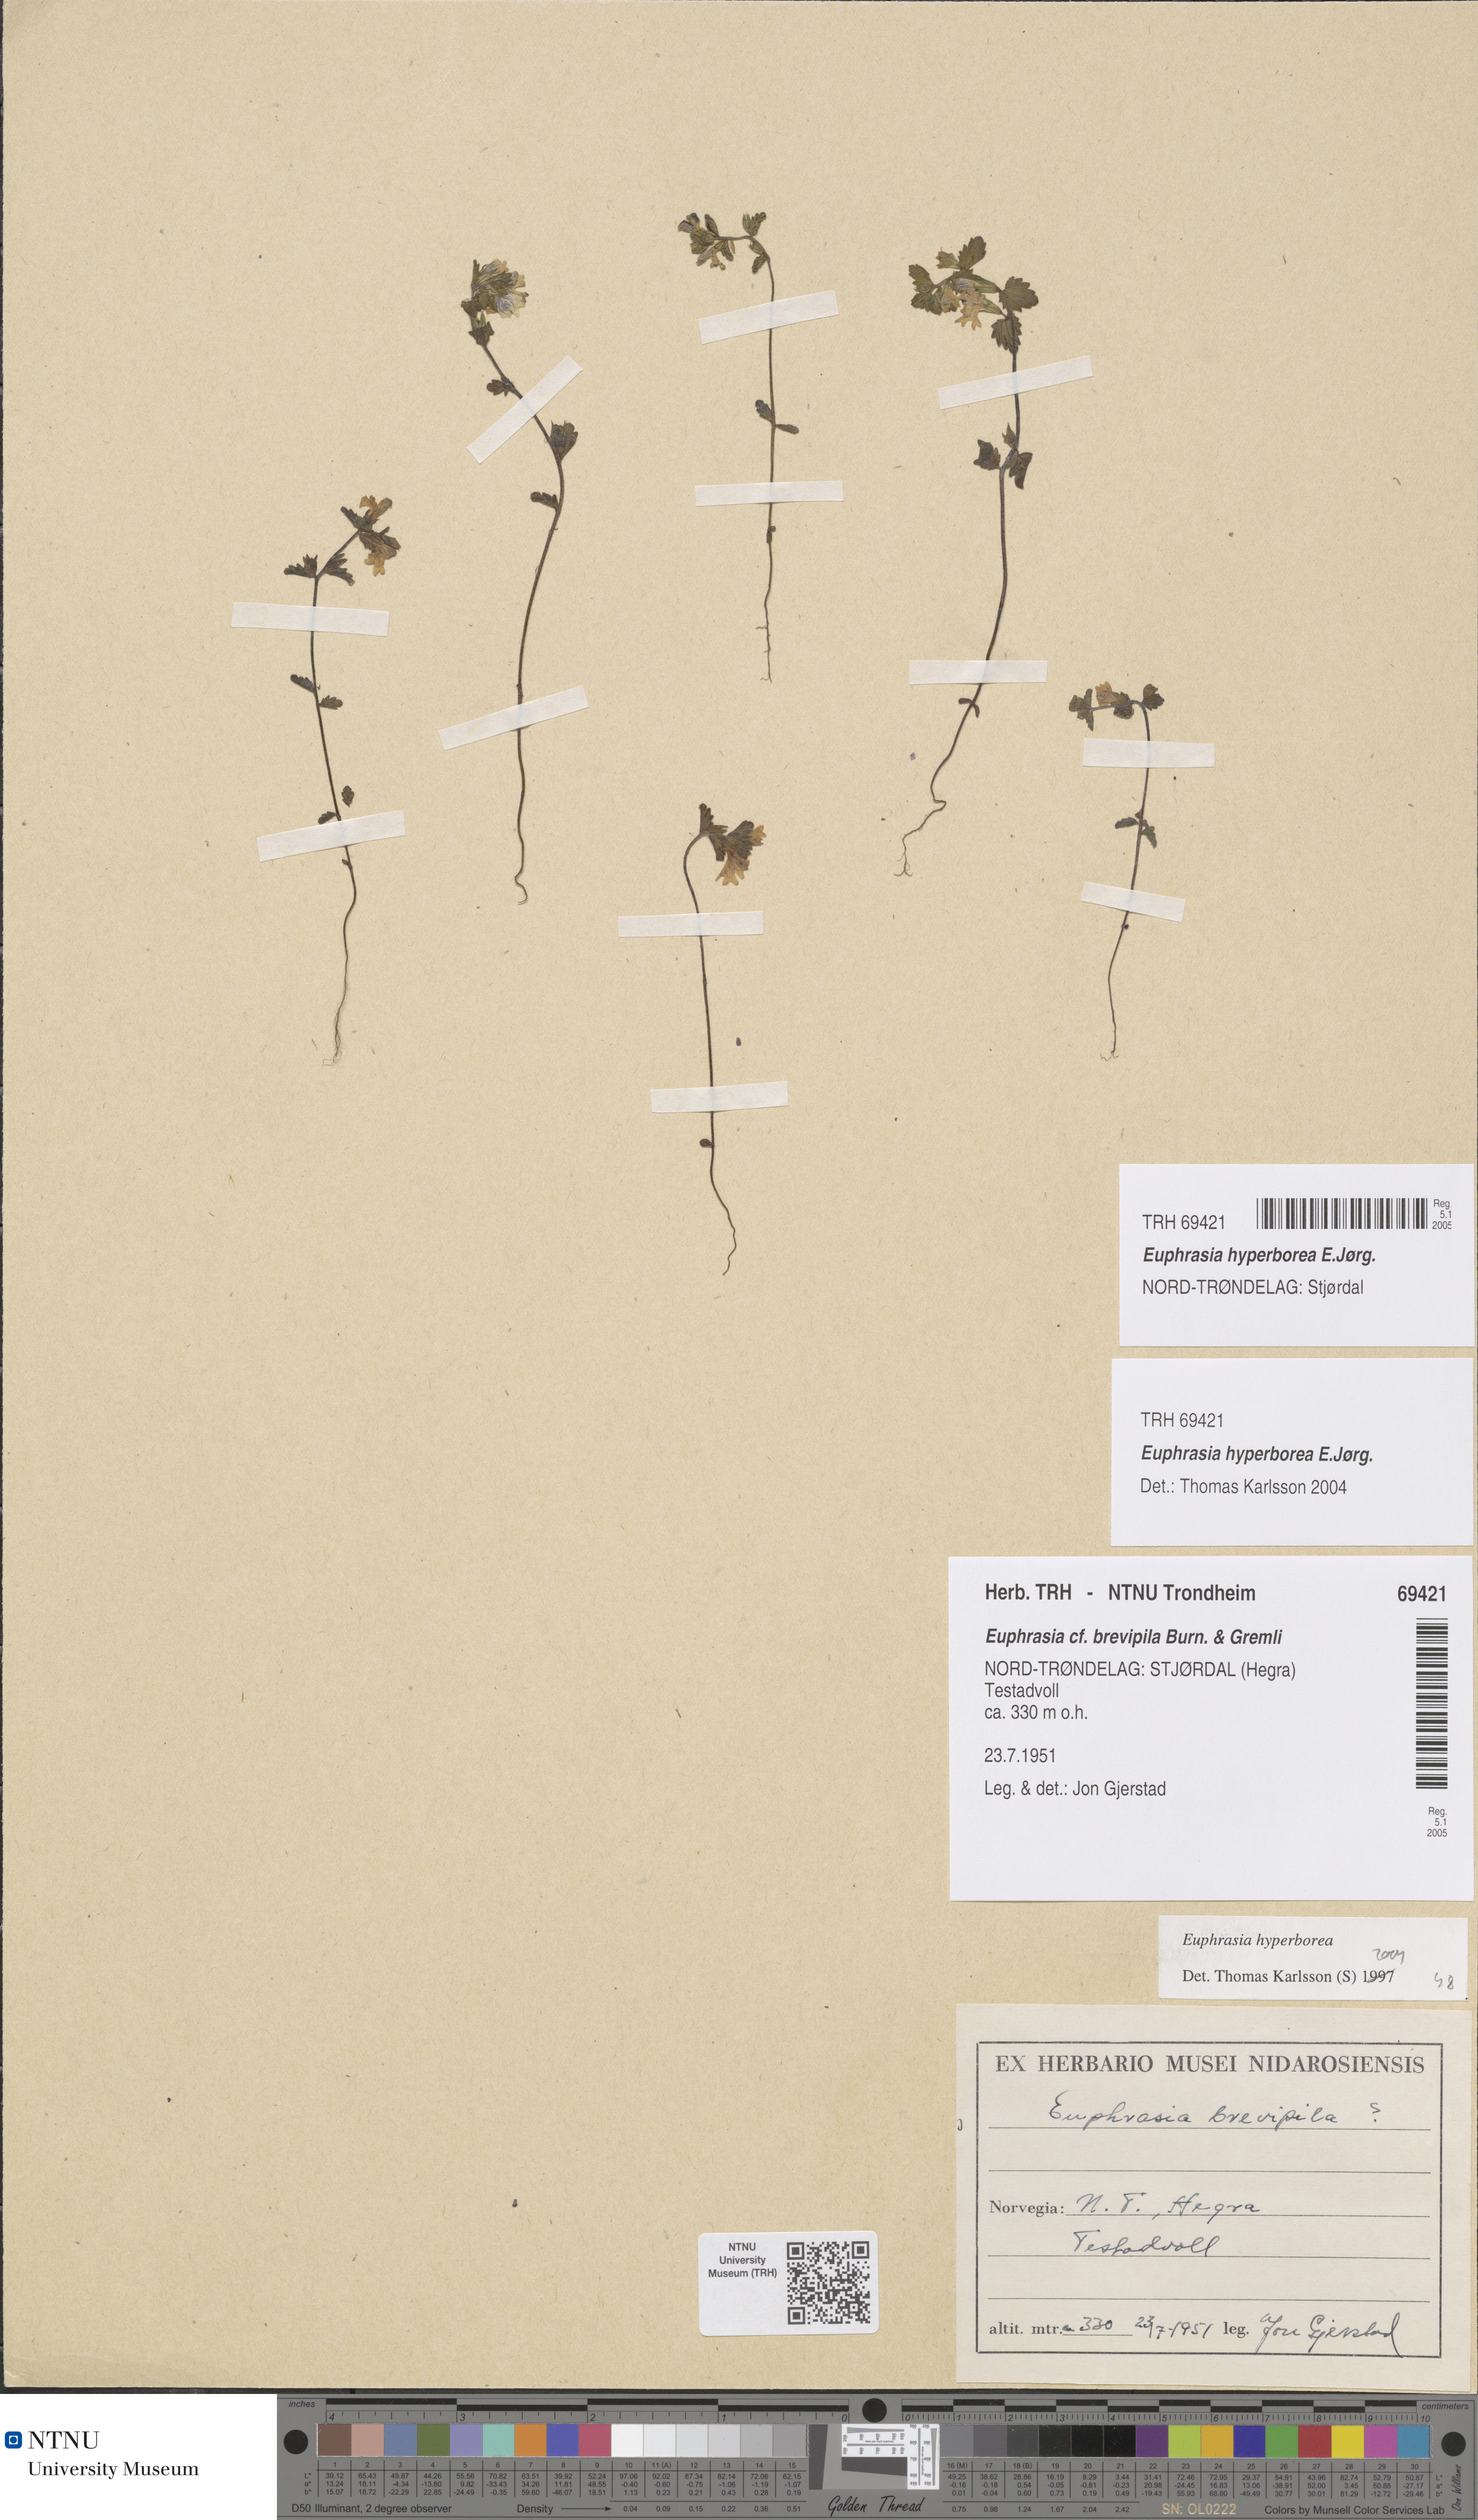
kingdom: Plantae
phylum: Tracheophyta
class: Magnoliopsida
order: Lamiales
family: Orobanchaceae
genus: Euphrasia
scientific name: Euphrasia hyperborea
